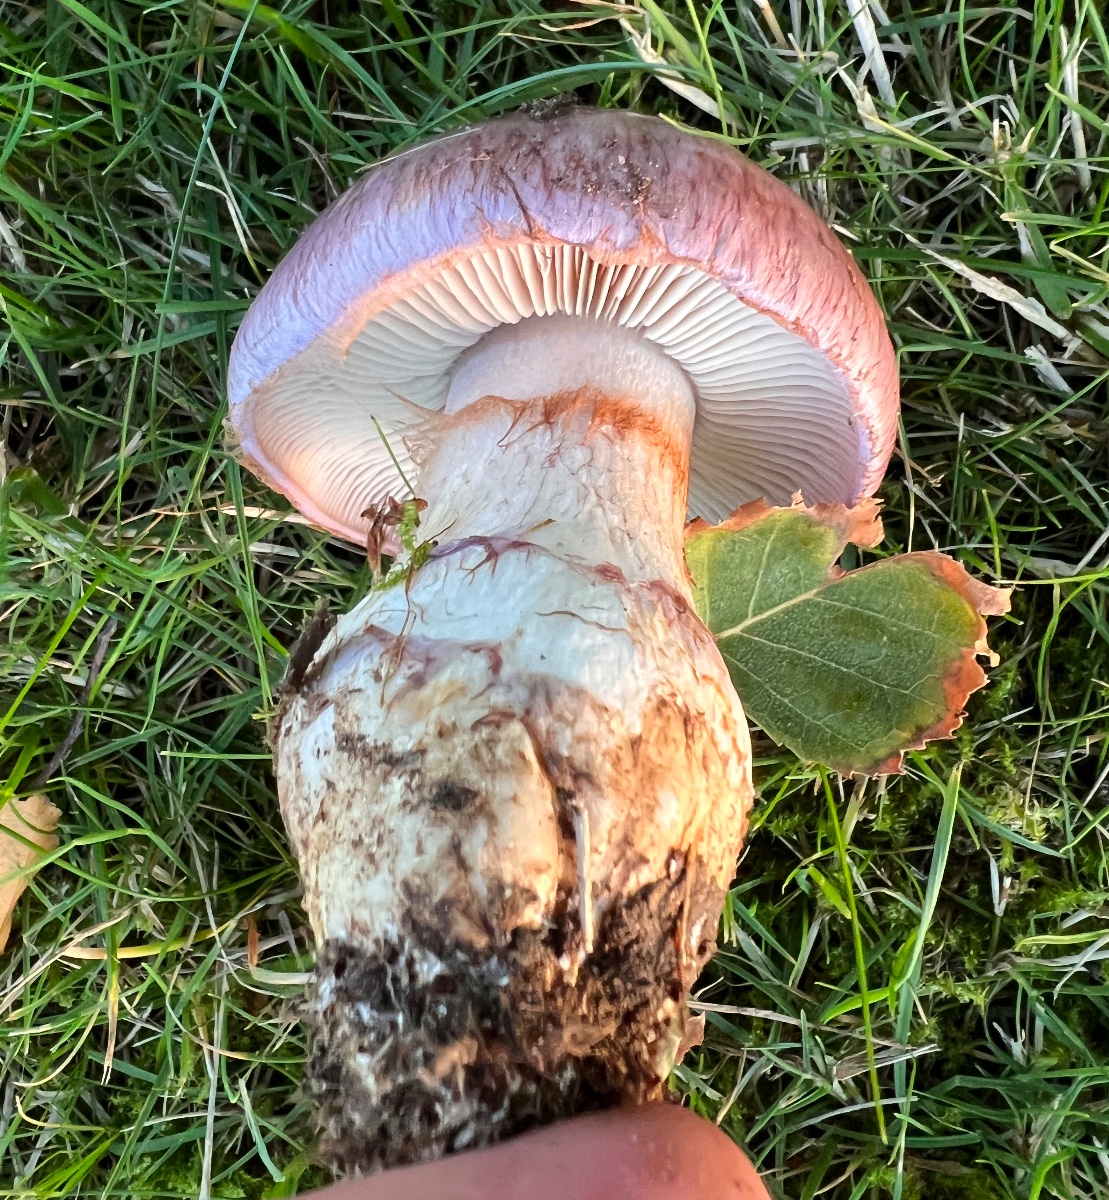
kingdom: Fungi
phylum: Basidiomycota
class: Agaricomycetes
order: Agaricales
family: Cortinariaceae
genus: Phlegmacium
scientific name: Phlegmacium balteatocumatile
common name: violettrådet slørhat
